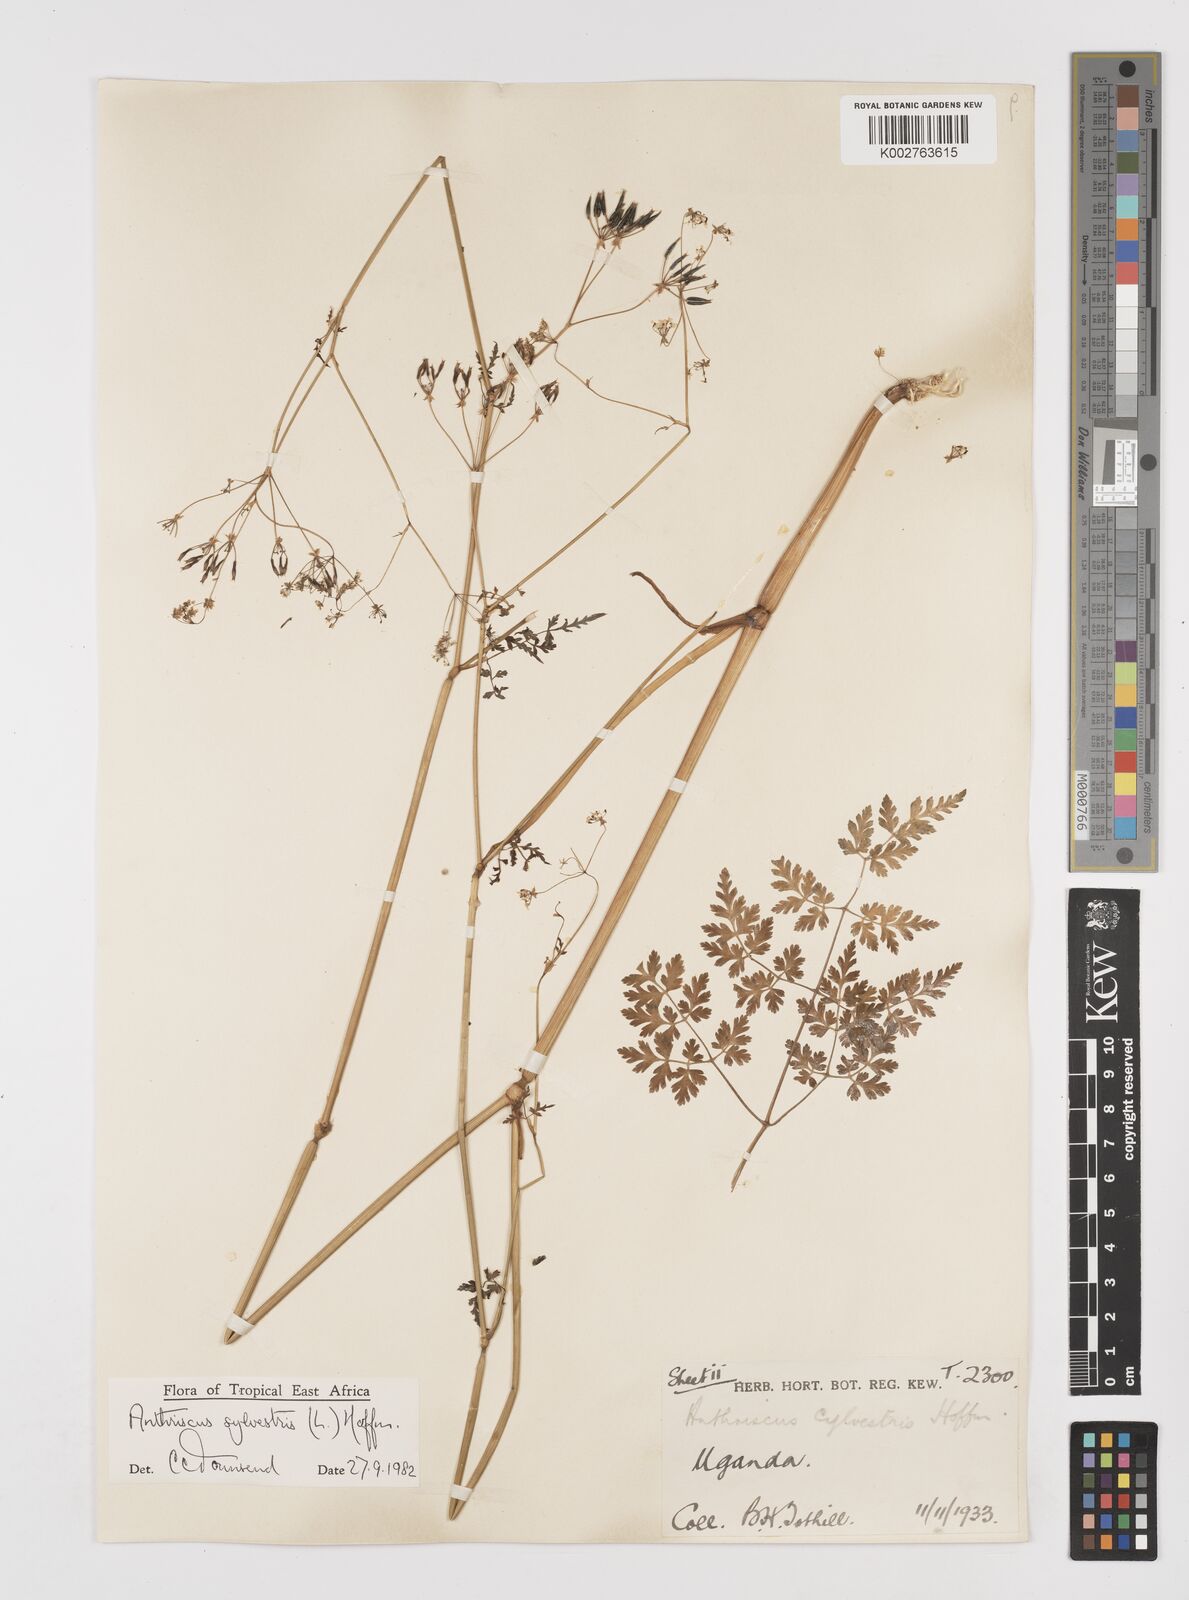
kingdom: Plantae
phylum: Tracheophyta
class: Magnoliopsida
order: Apiales
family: Apiaceae
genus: Anthriscus
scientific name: Anthriscus sylvestris
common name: Cow parsley
